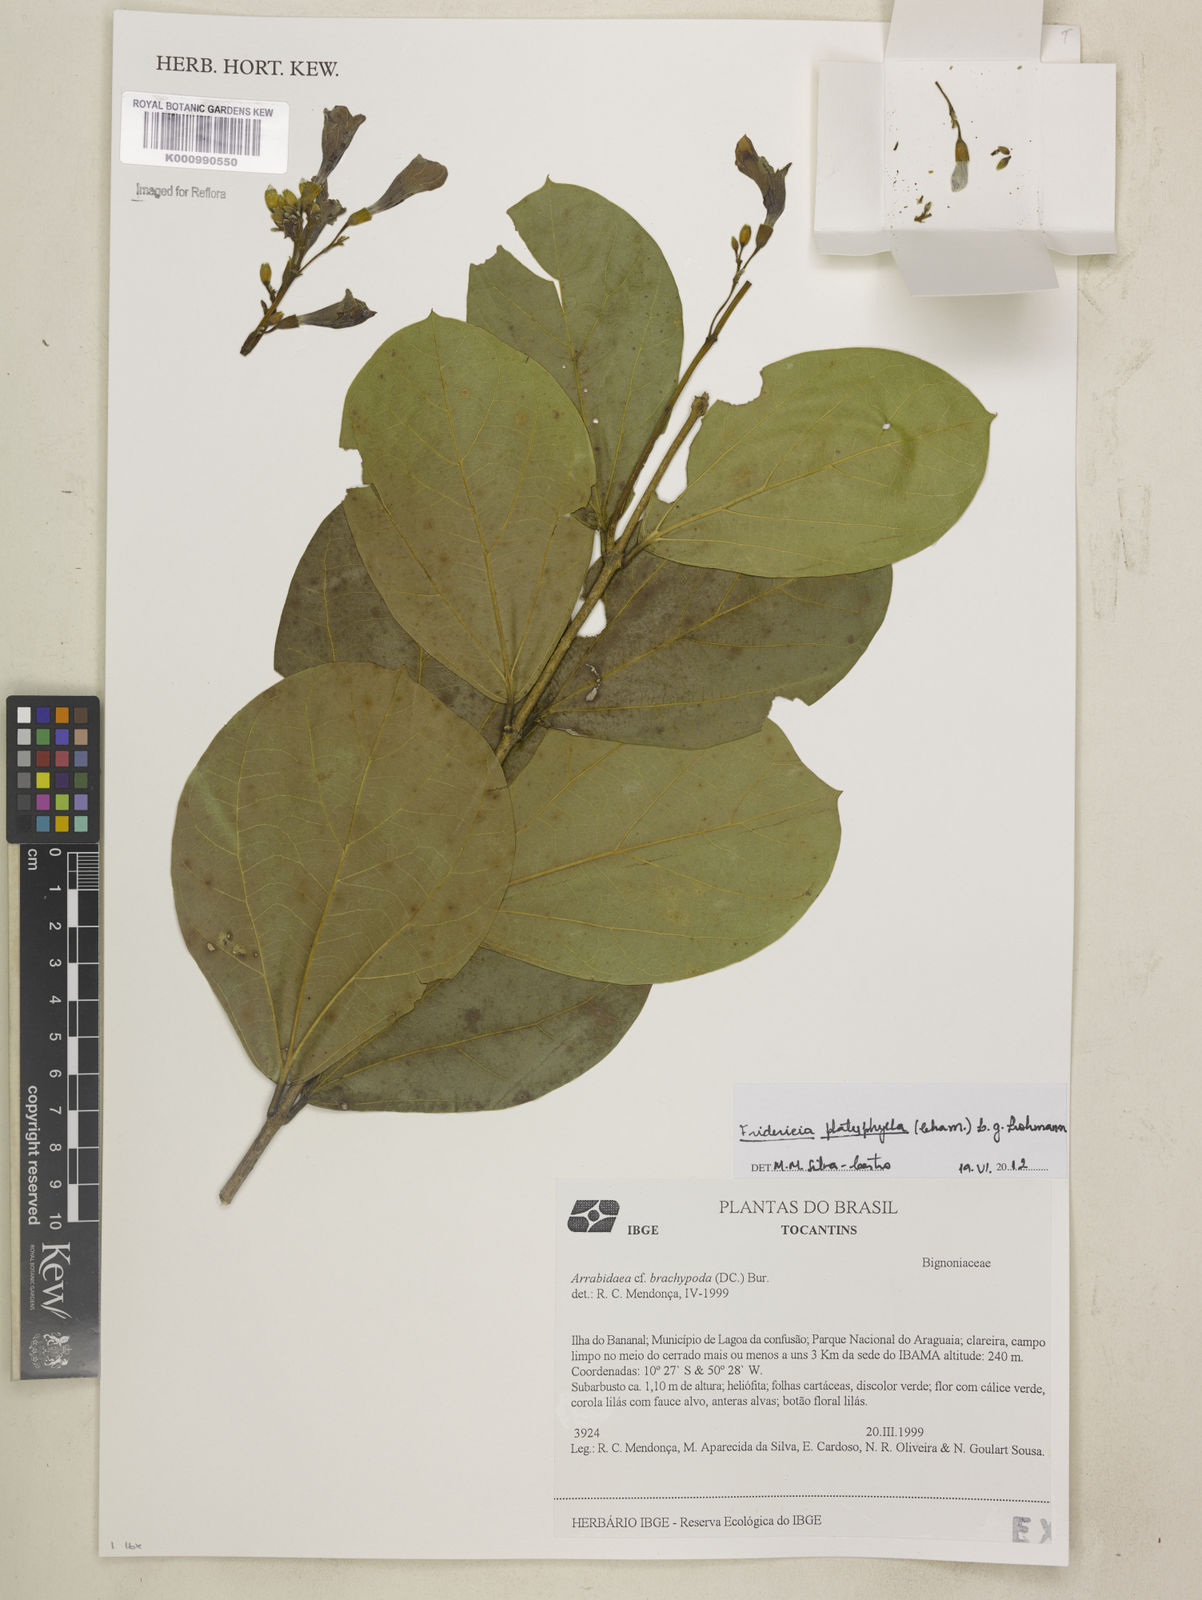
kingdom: Plantae
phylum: Tracheophyta
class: Magnoliopsida
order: Lamiales
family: Bignoniaceae
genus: Fridericia
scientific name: Fridericia platyphylla
